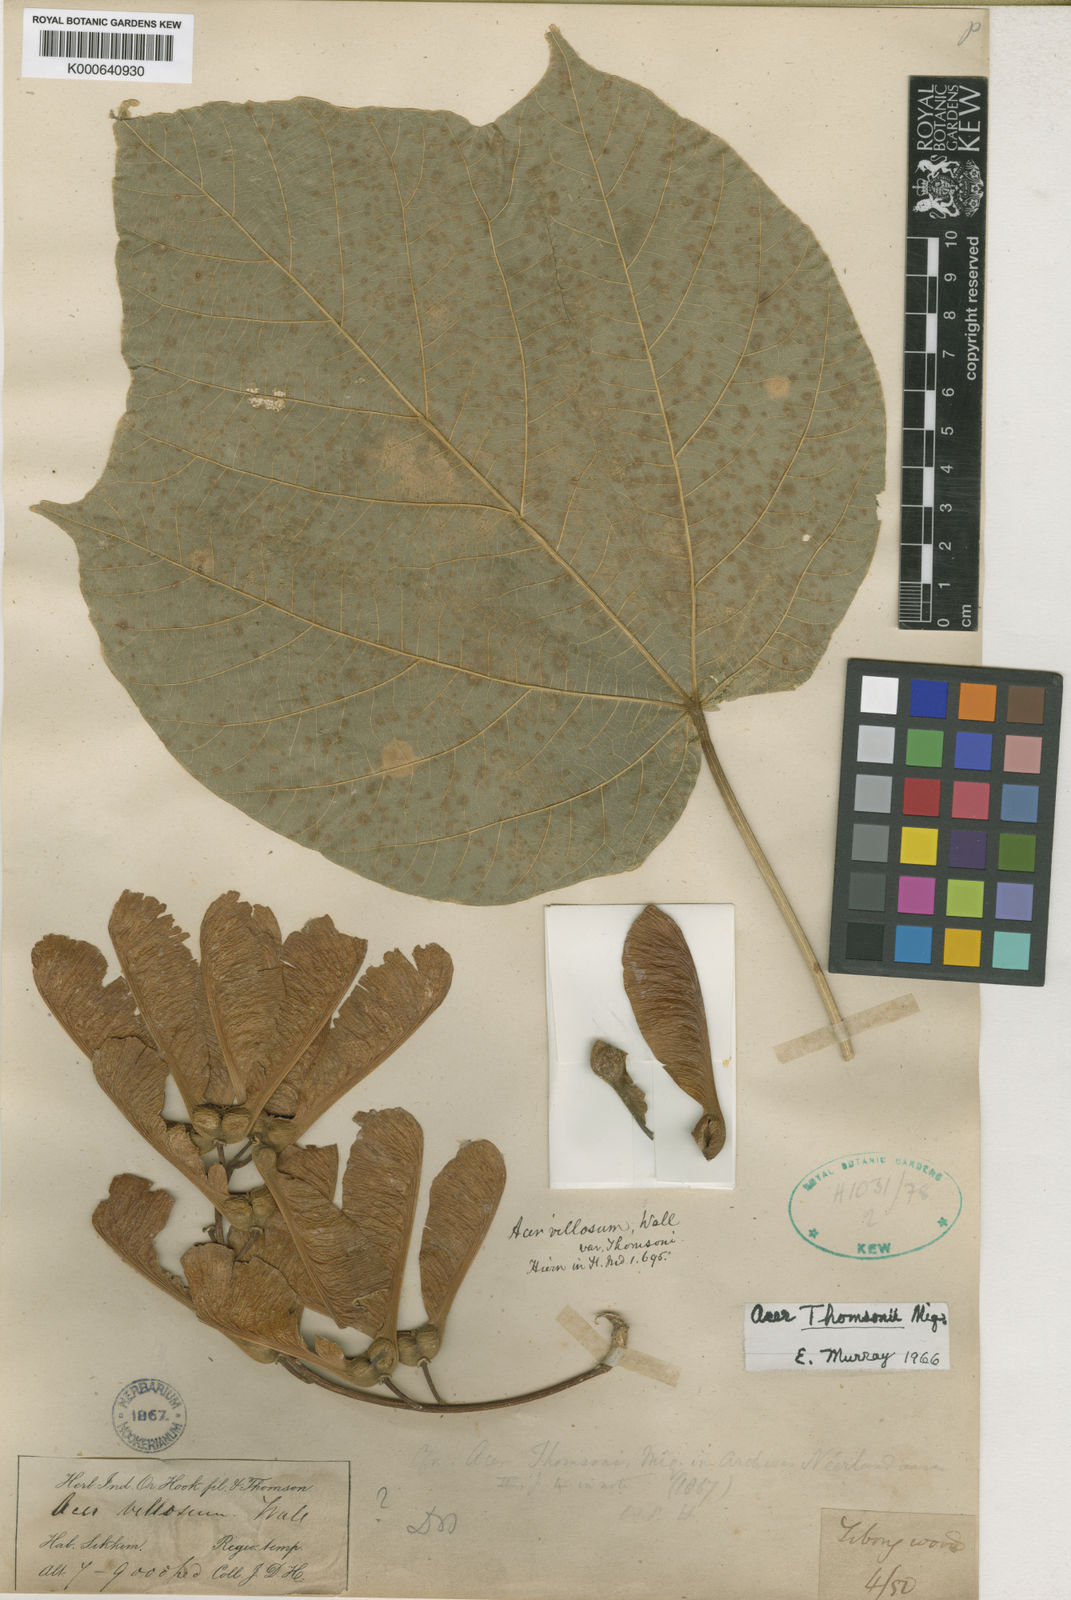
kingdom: Plantae
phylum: Tracheophyta
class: Magnoliopsida
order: Sapindales
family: Sapindaceae
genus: Acer
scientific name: Acer
